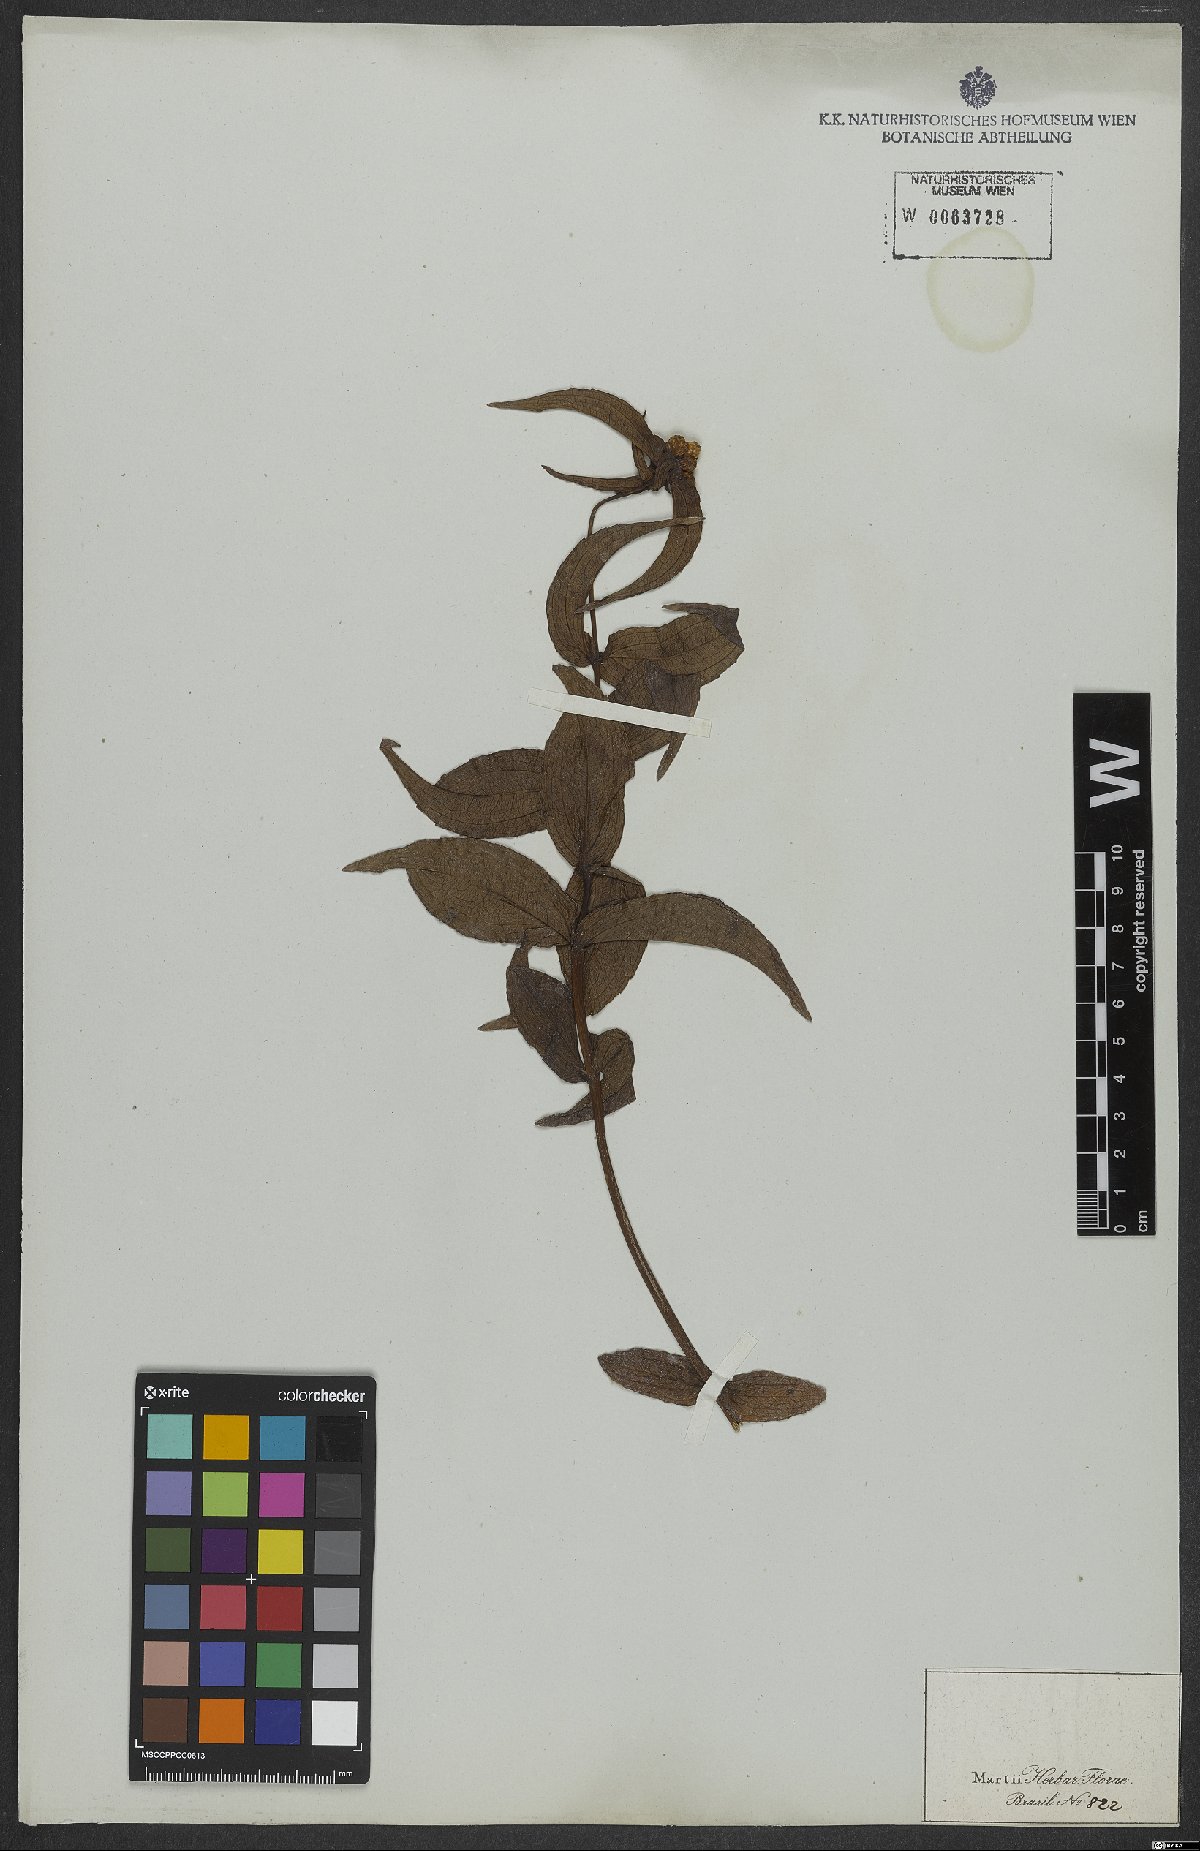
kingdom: Plantae
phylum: Tracheophyta
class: Magnoliopsida
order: Asterales
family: Asteraceae
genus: Ichthyothere
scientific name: Ichthyothere cunabi
